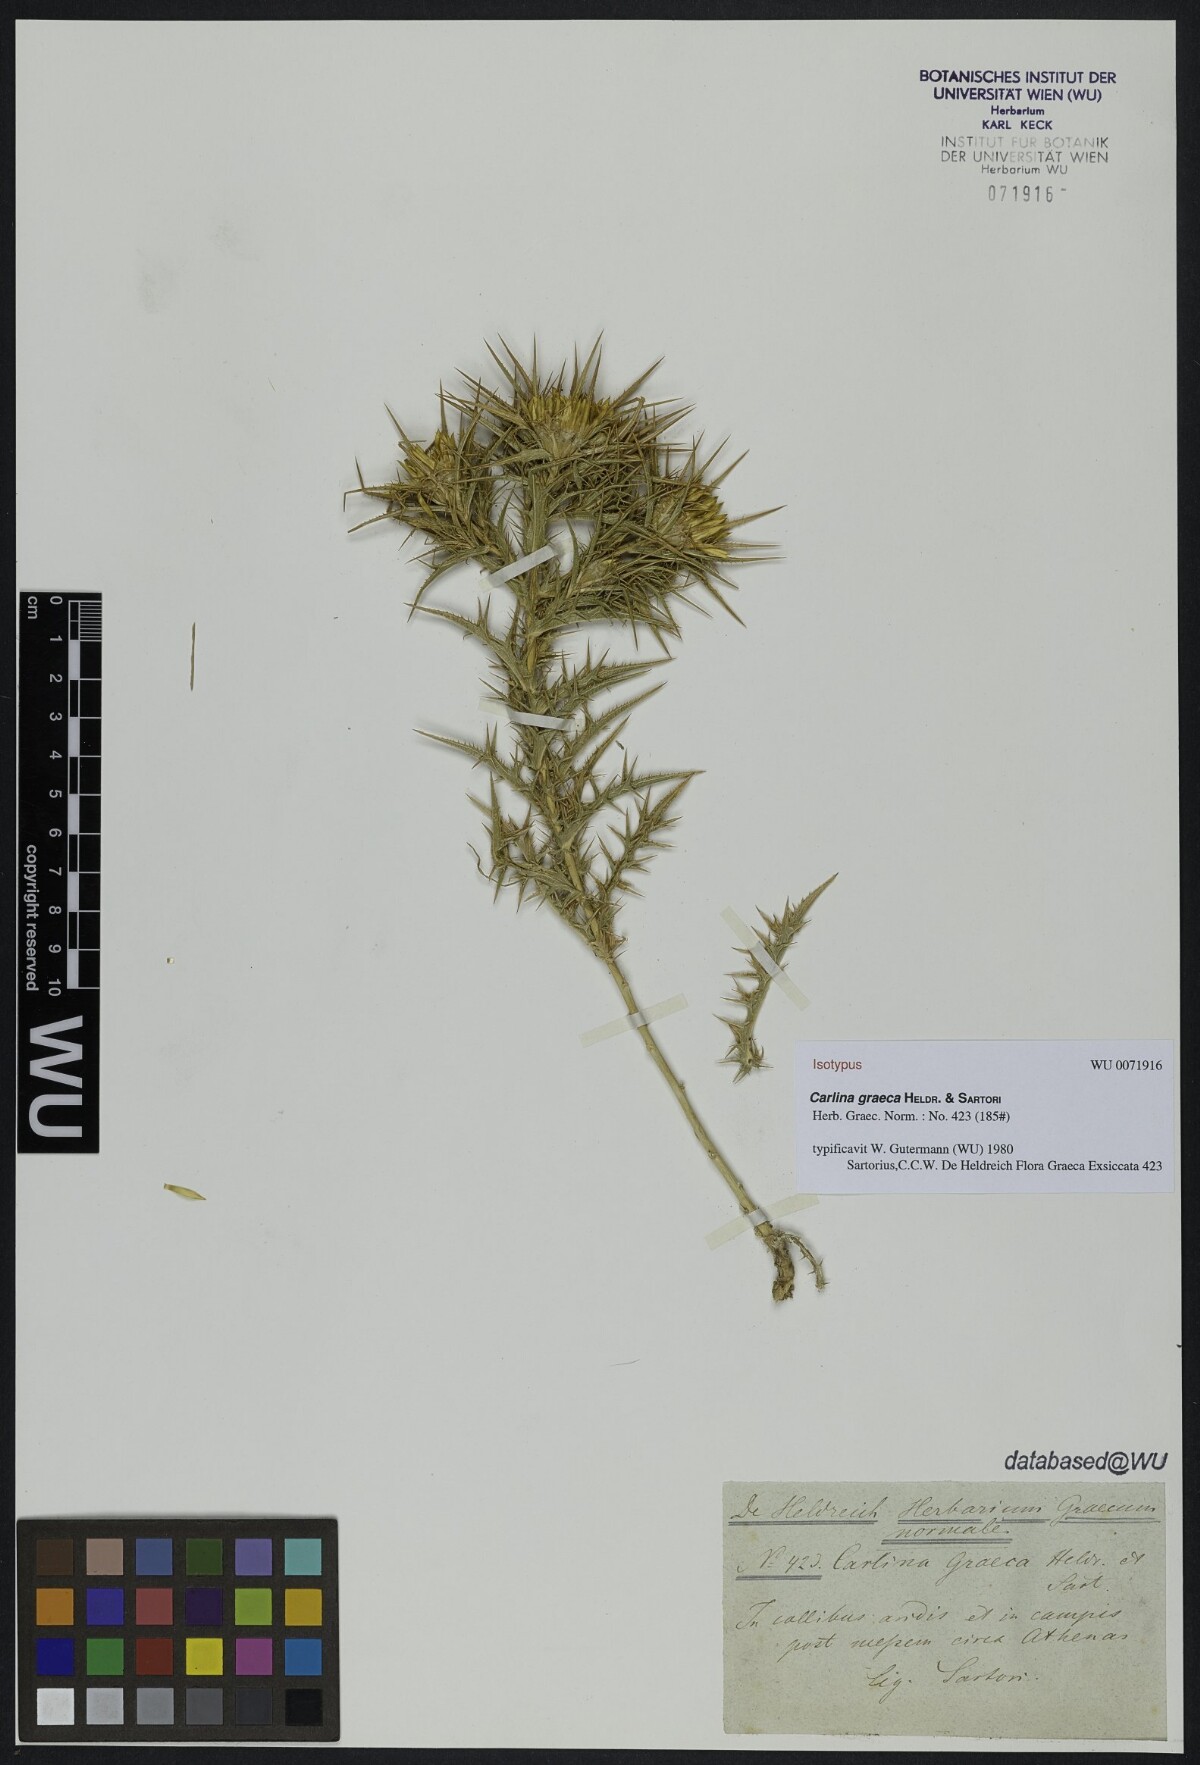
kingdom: Plantae
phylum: Tracheophyta
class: Magnoliopsida
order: Asterales
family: Asteraceae
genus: Carlina
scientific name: Carlina graeca
